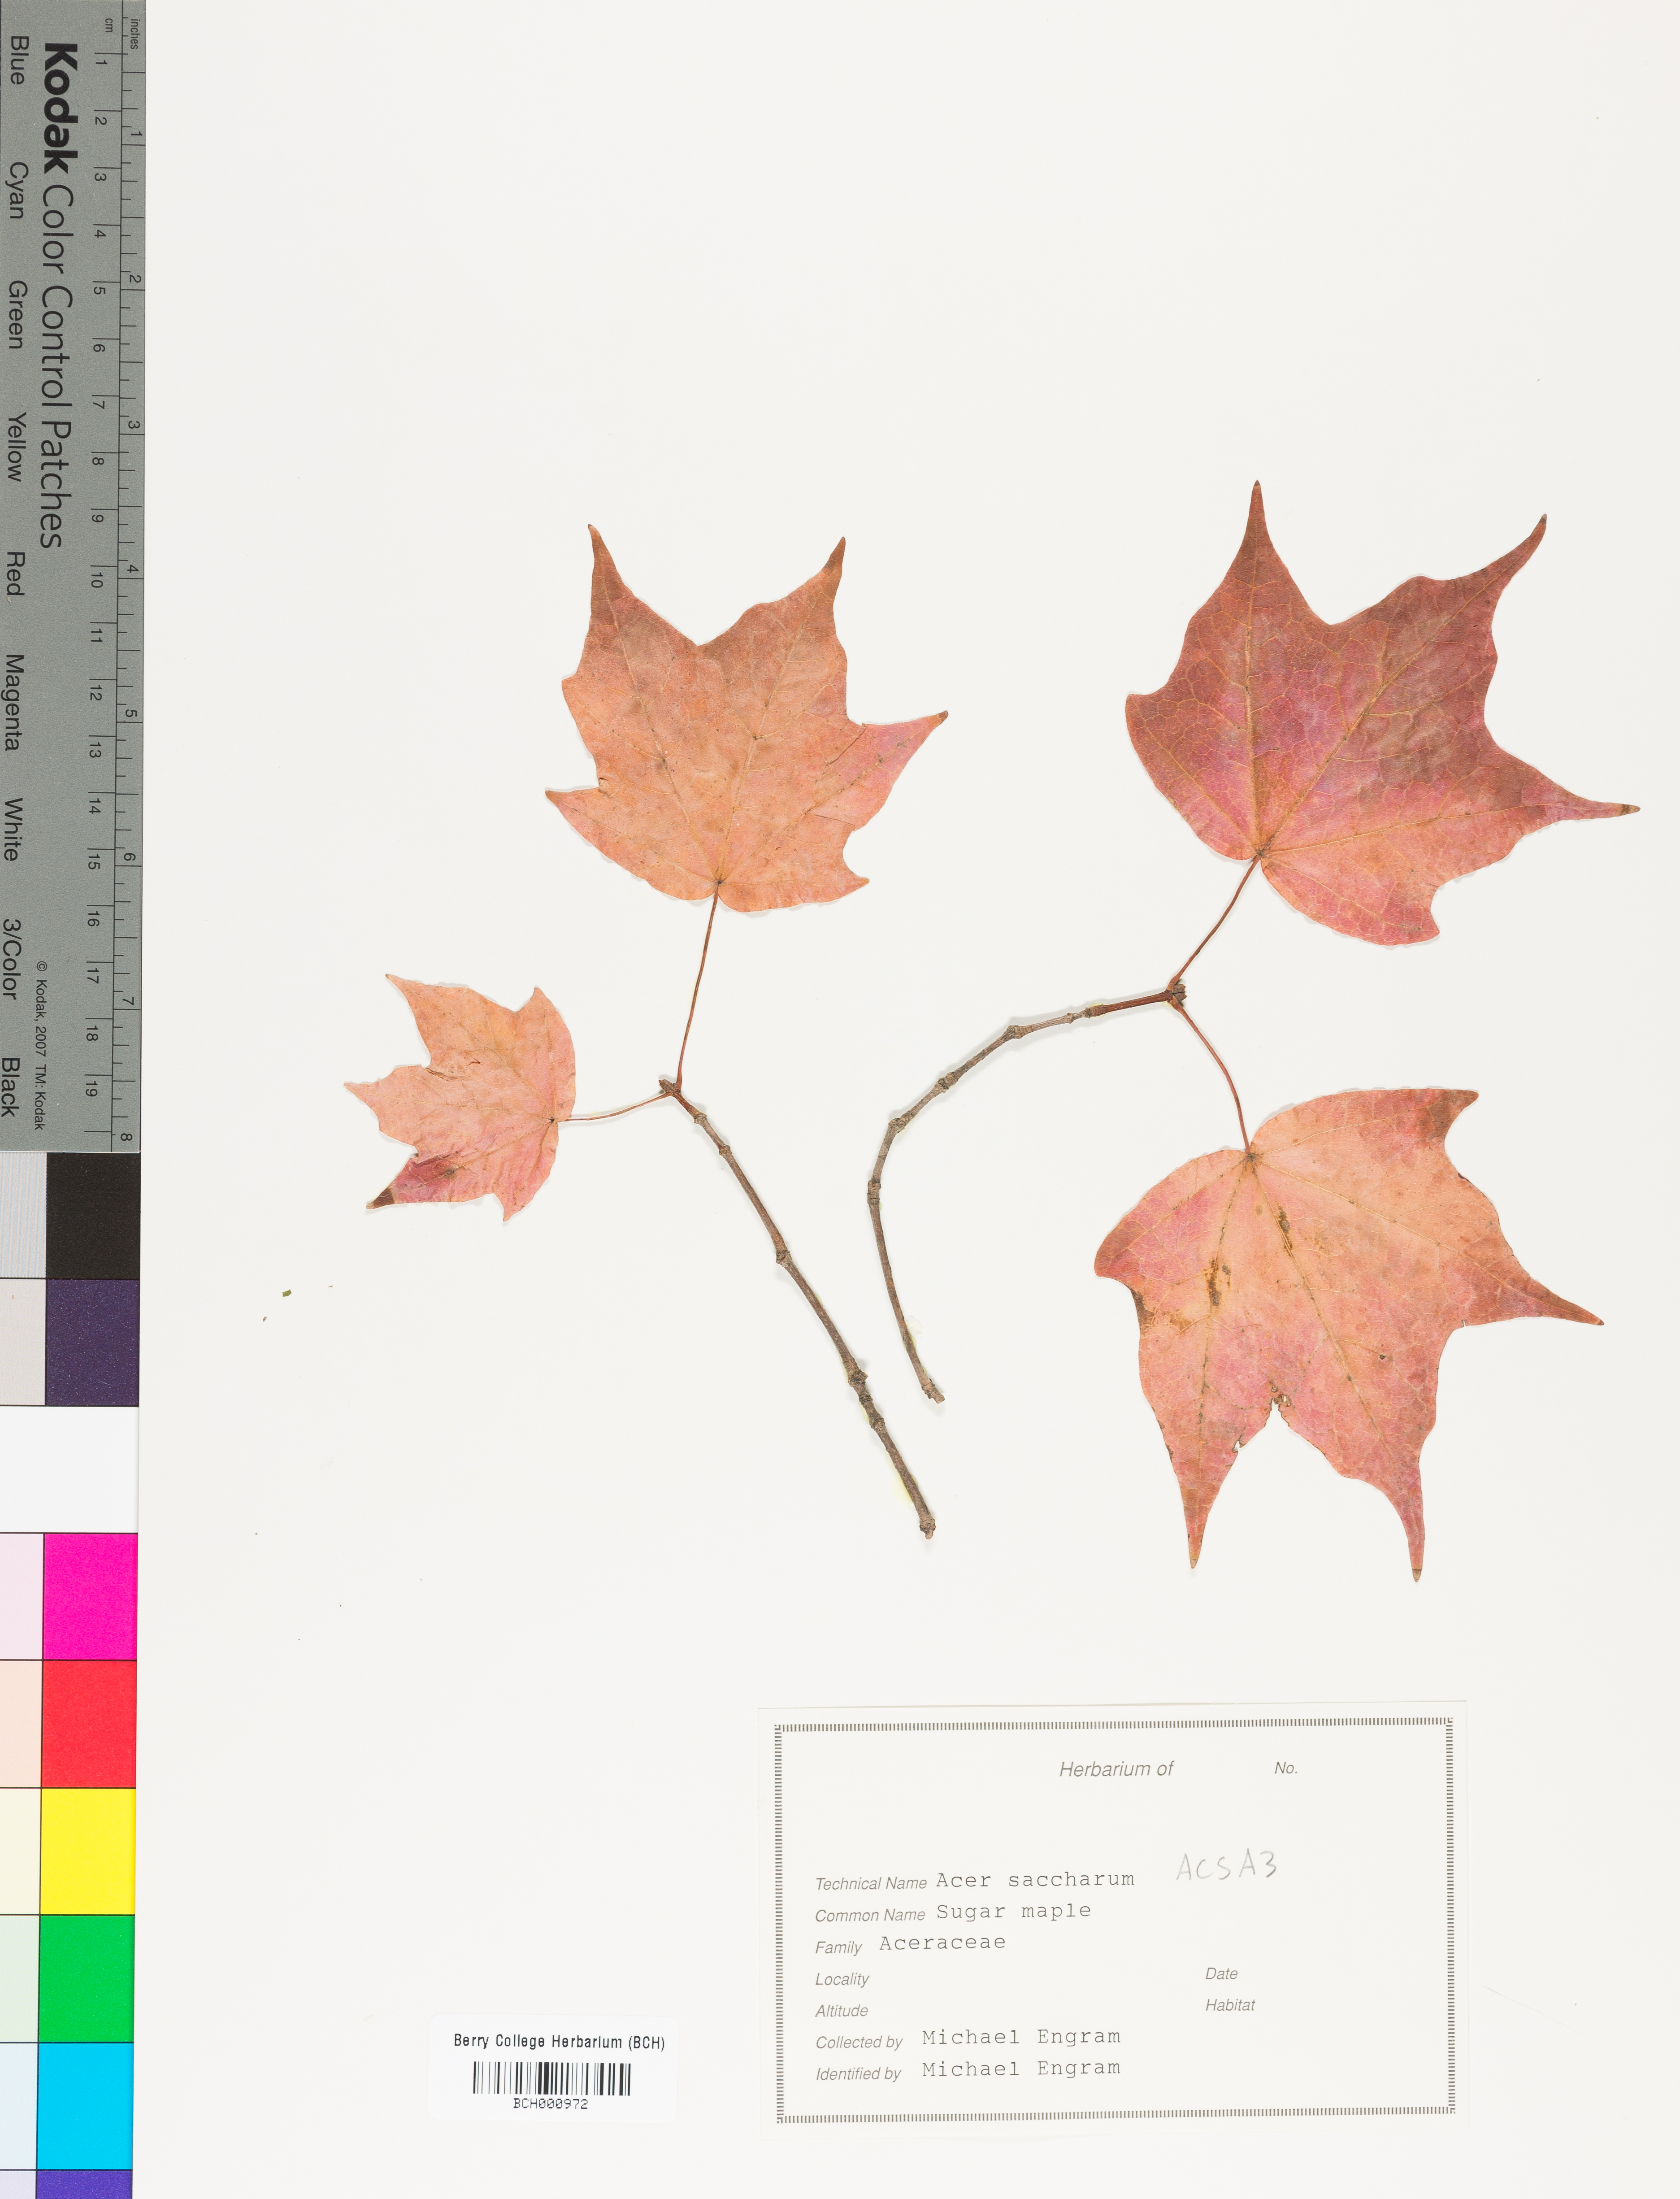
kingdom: Plantae
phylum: Tracheophyta
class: Magnoliopsida
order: Sapindales
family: Sapindaceae
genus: Acer
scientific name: Acer saccharum
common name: Sugar maple
